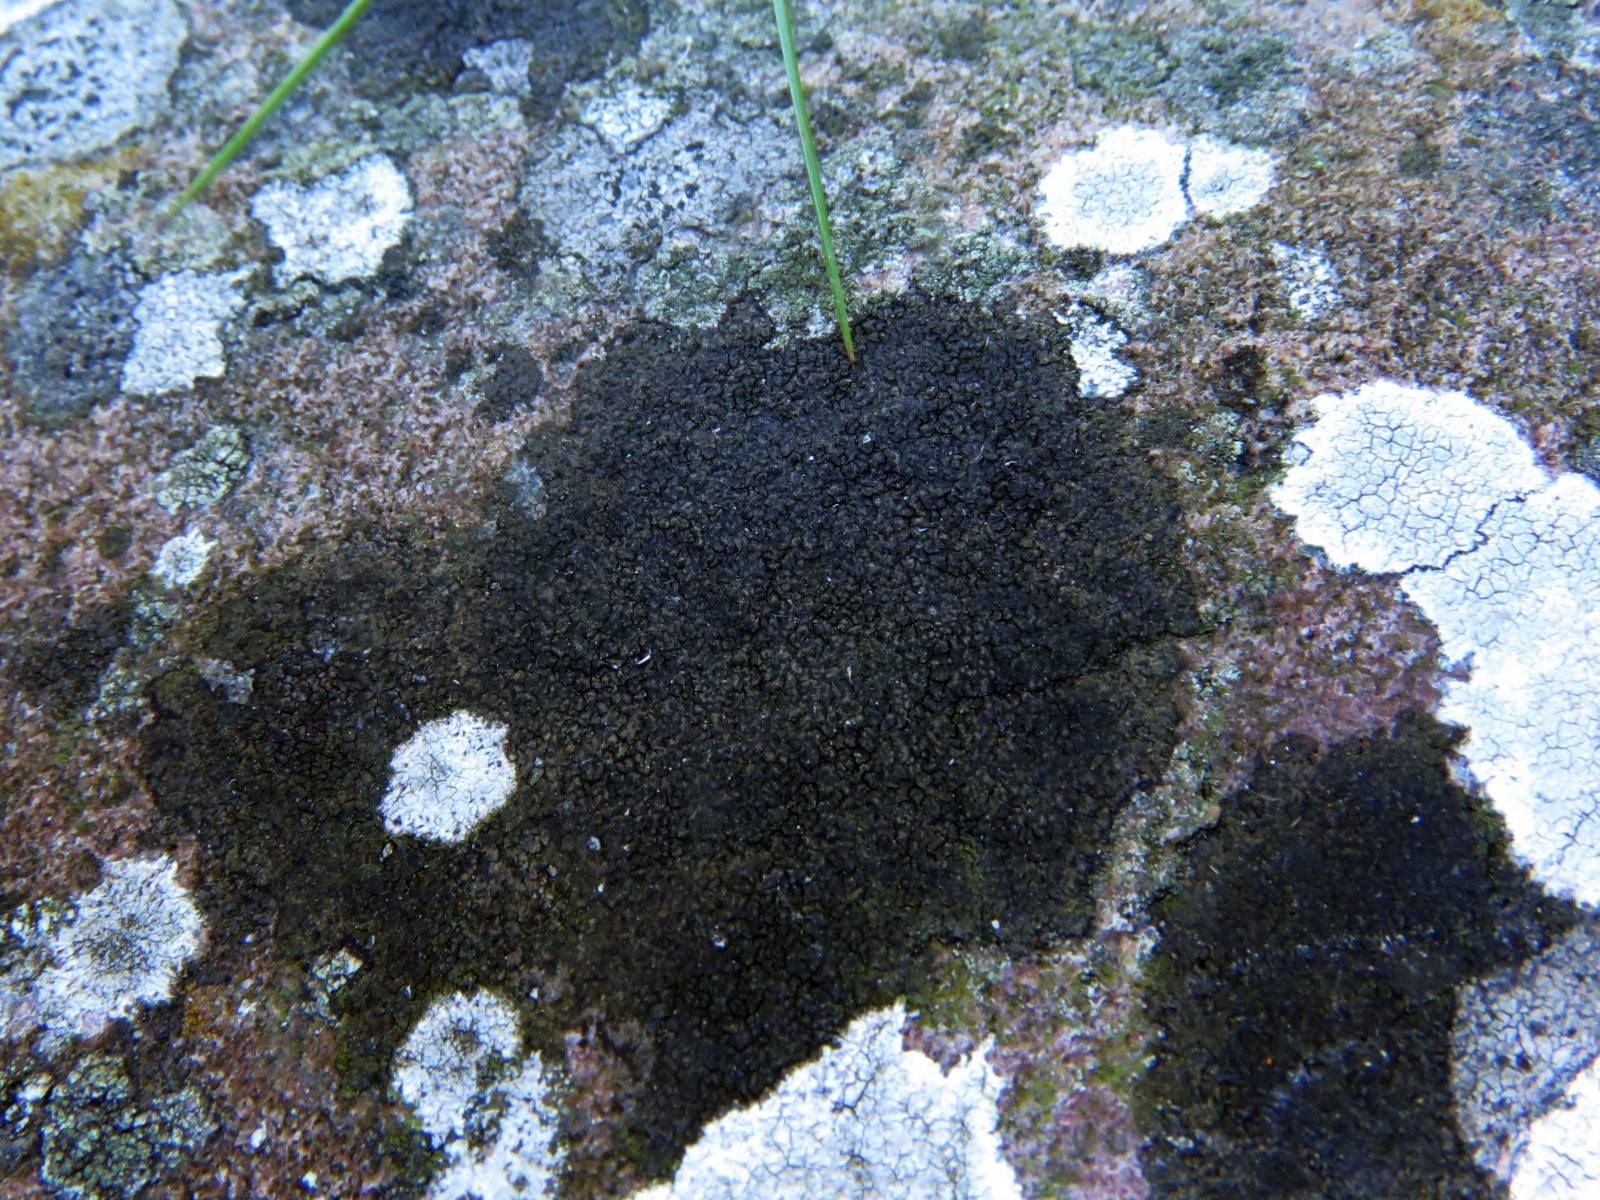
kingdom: Fungi
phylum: Ascomycota
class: Eurotiomycetes
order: Verrucariales
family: Verrucariaceae
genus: Verrucaria
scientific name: Verrucaria nigrescens
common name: sortbrun vortelav
